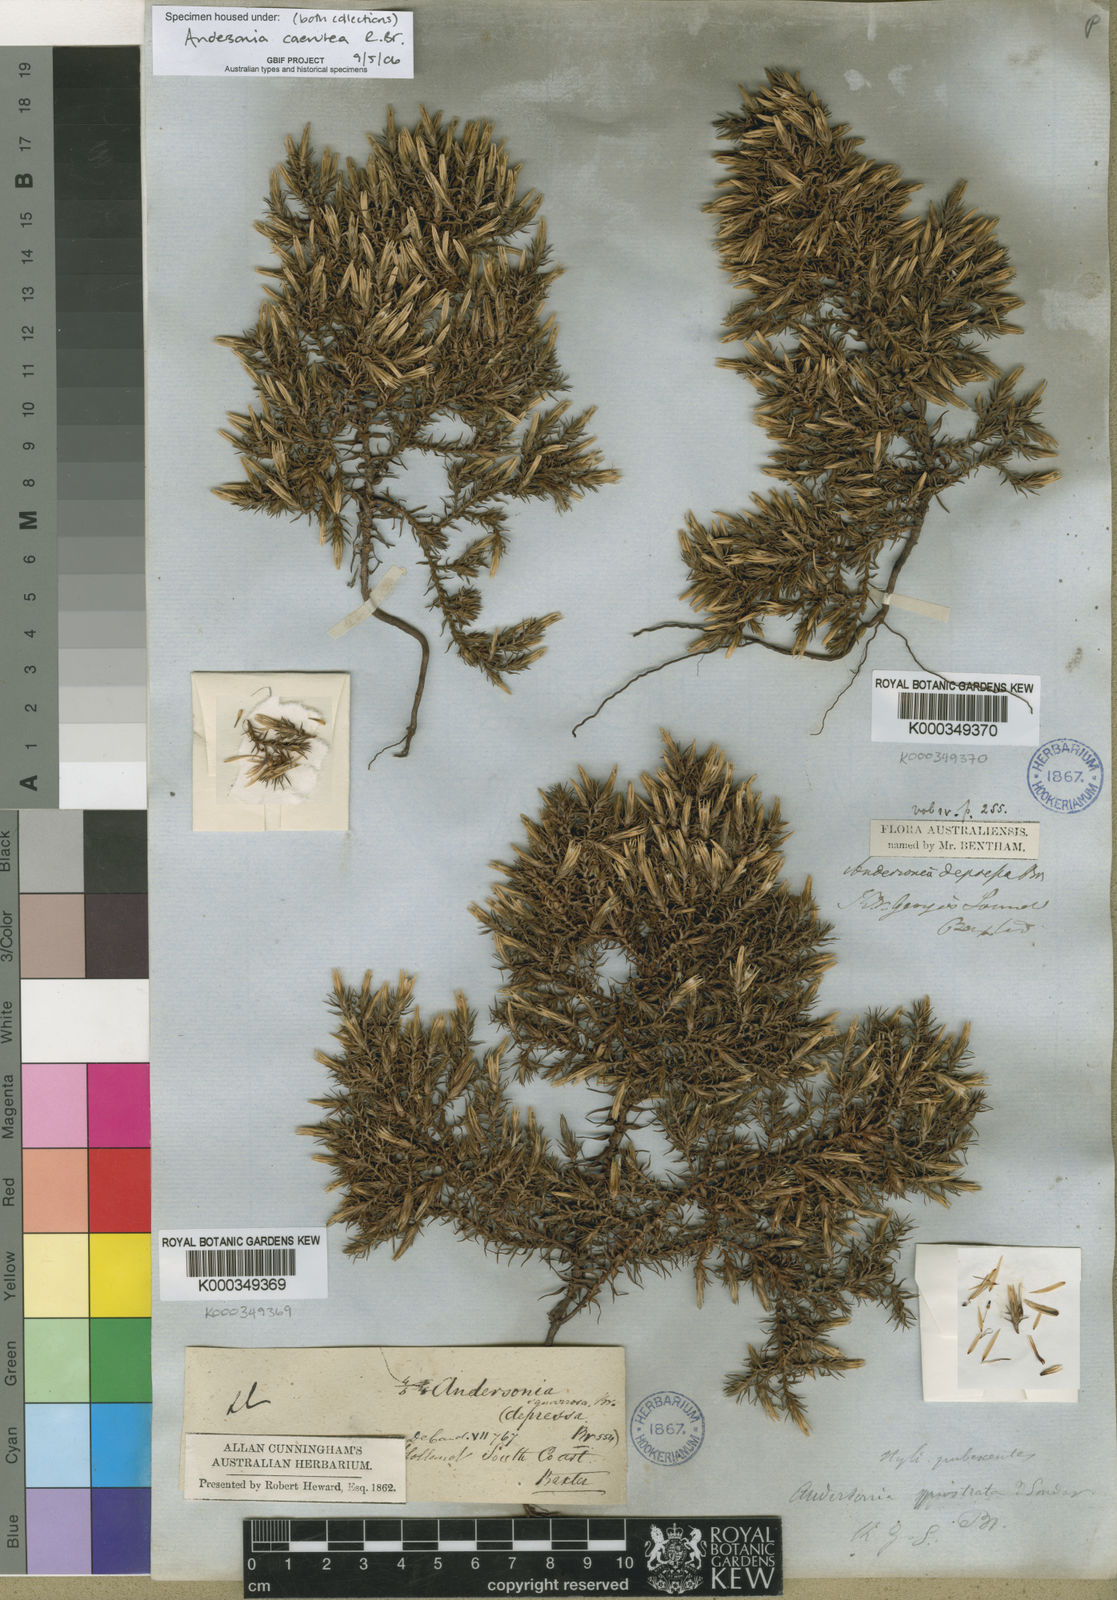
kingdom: Plantae
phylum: Tracheophyta
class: Magnoliopsida
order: Ericales
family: Ericaceae
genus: Andersonia
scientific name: Andersonia caerulea
